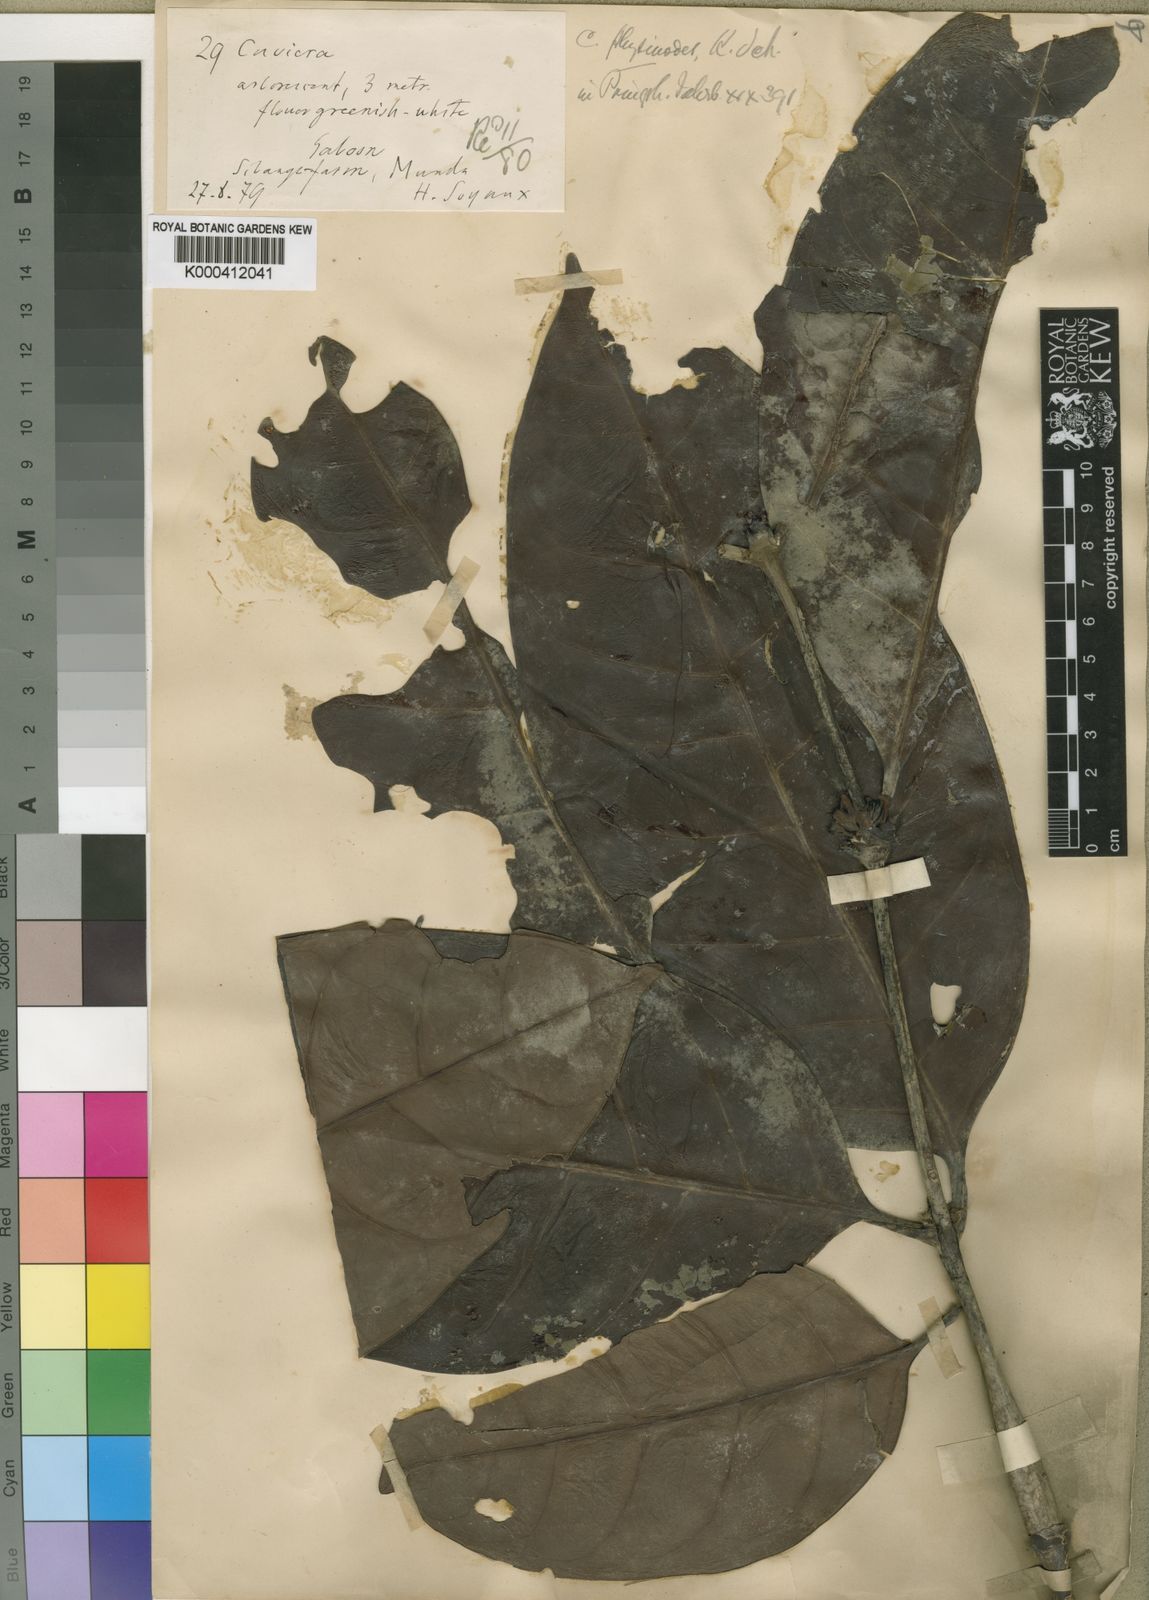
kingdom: Plantae
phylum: Tracheophyta
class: Magnoliopsida
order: Gentianales
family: Rubiaceae
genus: Cuviera
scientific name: Cuviera physinodes
